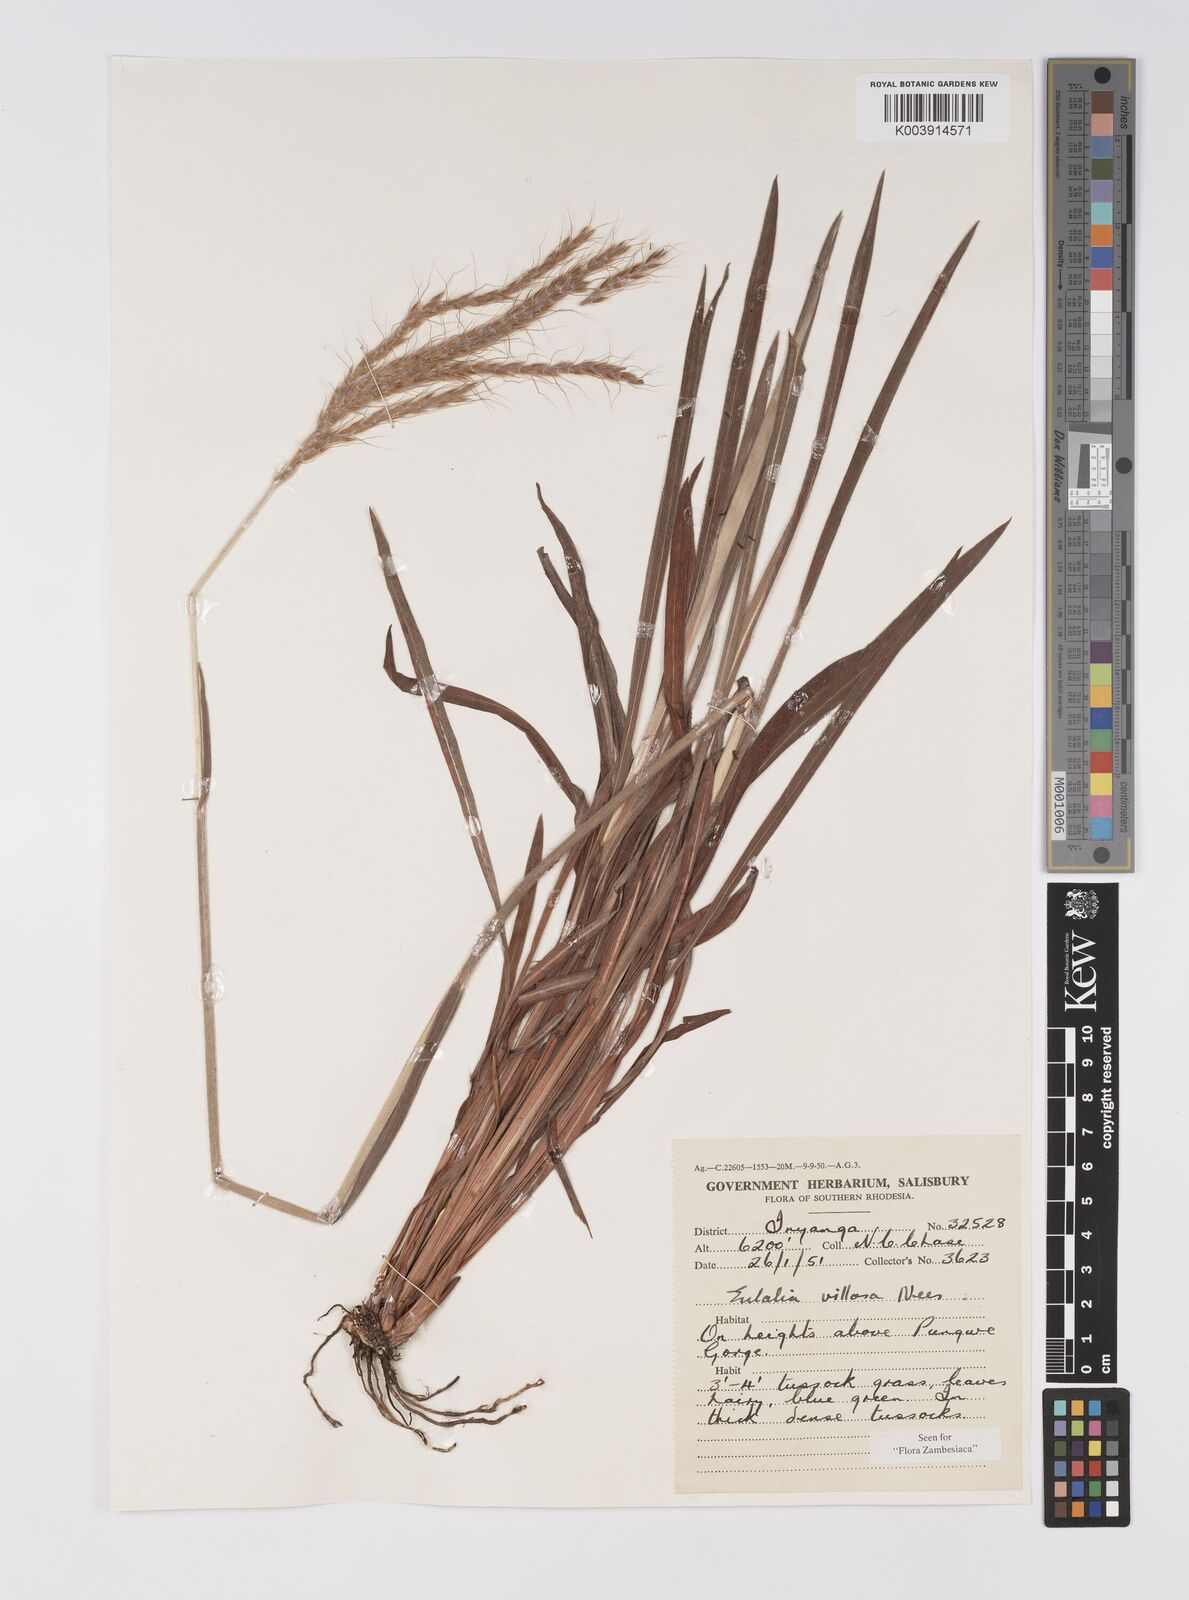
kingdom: Plantae
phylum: Tracheophyta
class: Liliopsida
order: Poales
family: Poaceae
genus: Eulalia
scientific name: Eulalia villosa
